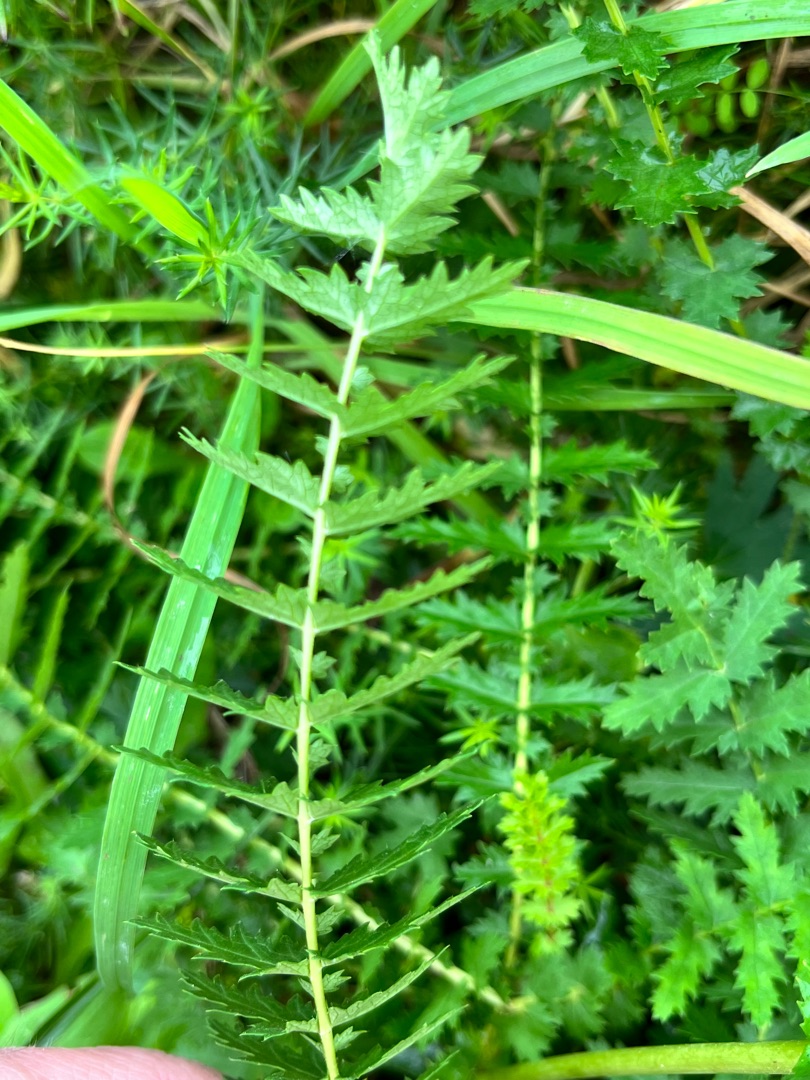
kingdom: Plantae
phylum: Tracheophyta
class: Magnoliopsida
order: Rosales
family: Rosaceae
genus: Filipendula
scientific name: Filipendula vulgaris
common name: Knoldet mjødurt
